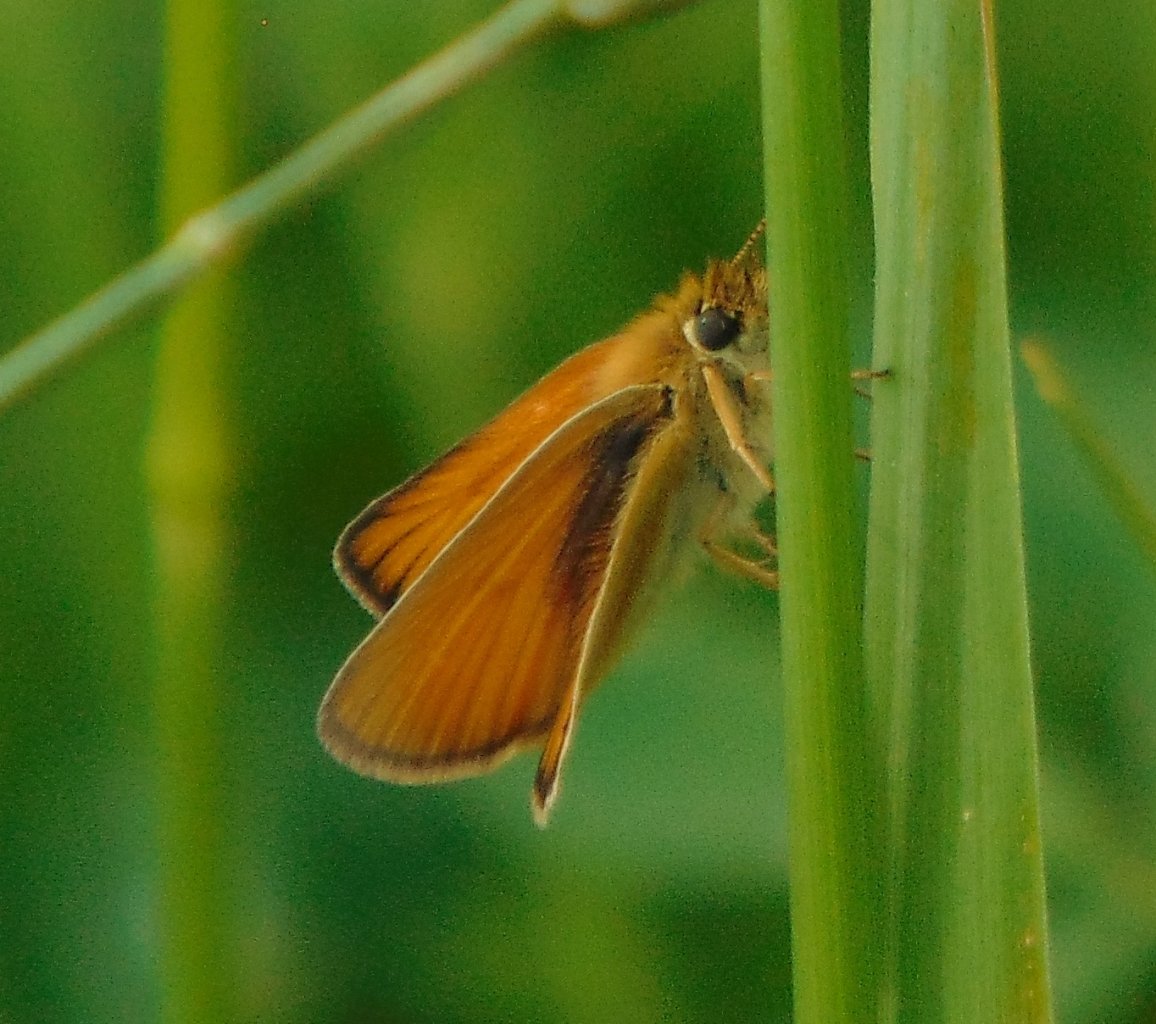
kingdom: Animalia
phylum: Arthropoda
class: Insecta
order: Lepidoptera
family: Hesperiidae
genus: Thymelicus
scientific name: Thymelicus lineola
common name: European Skipper
